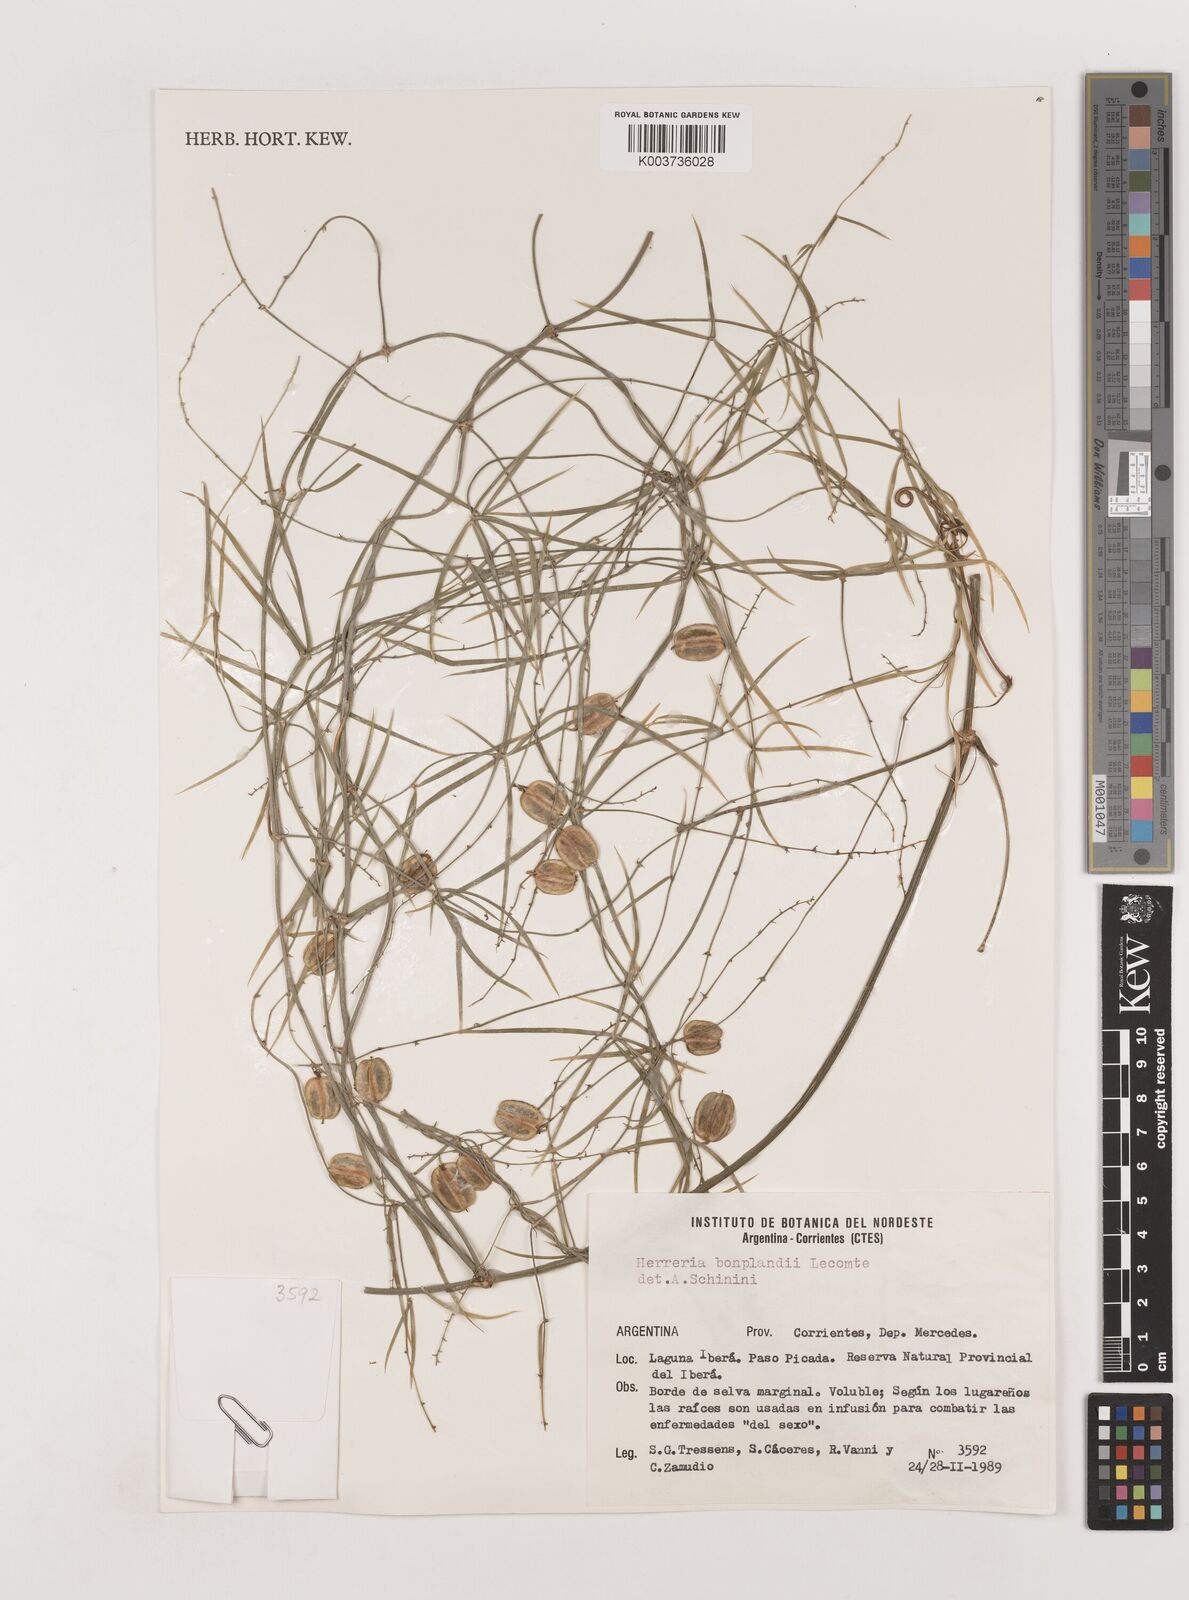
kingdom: Plantae
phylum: Tracheophyta
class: Liliopsida
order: Asparagales
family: Asparagaceae
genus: Herreria
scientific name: Herreria bonplandii
